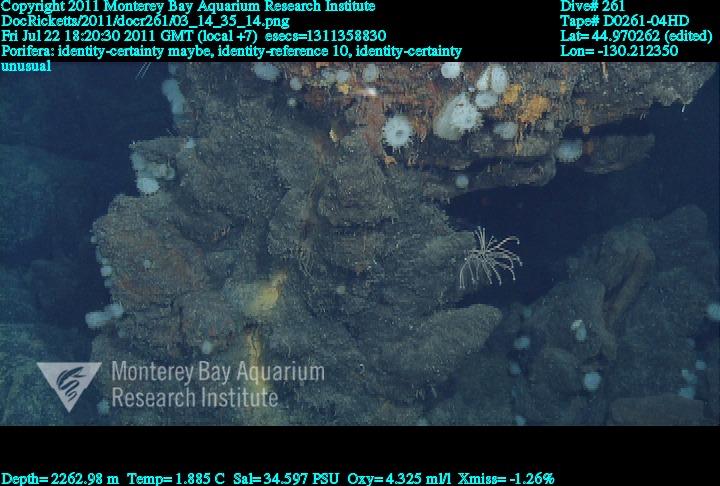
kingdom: Animalia
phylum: Porifera
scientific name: Porifera
